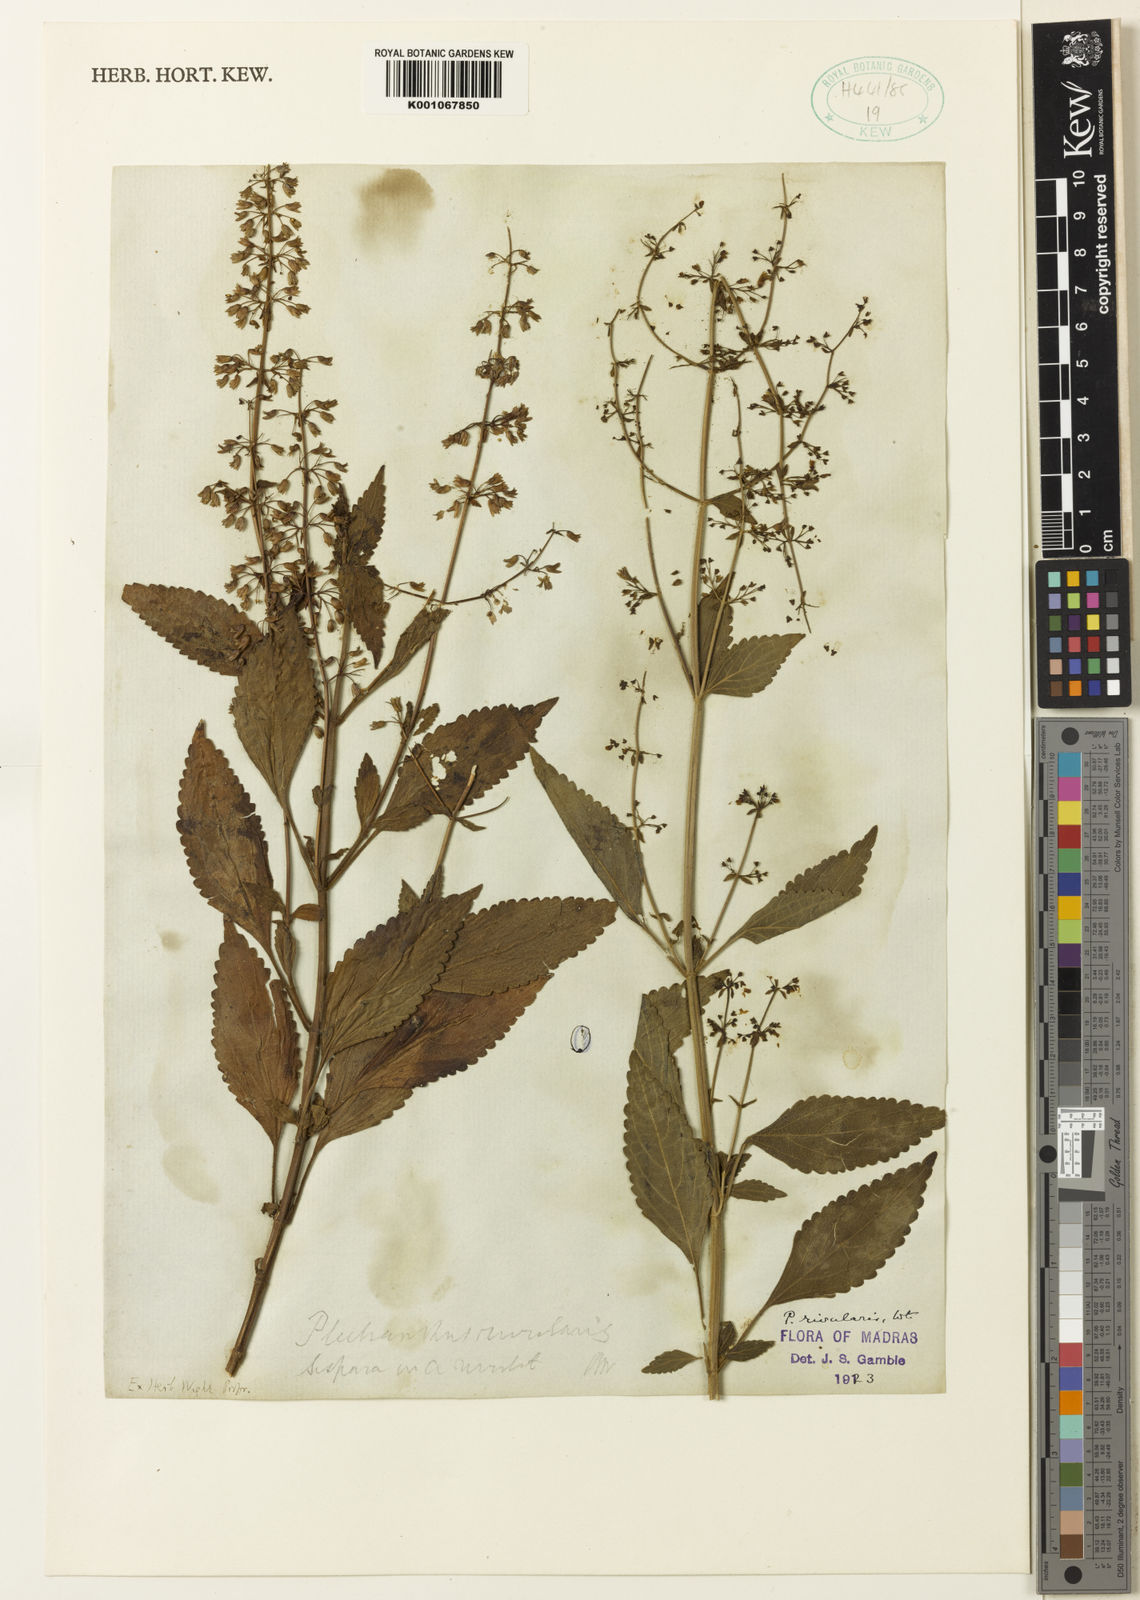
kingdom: Plantae
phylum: Tracheophyta
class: Magnoliopsida
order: Lamiales
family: Lamiaceae
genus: Isodon
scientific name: Isodon rivularis
